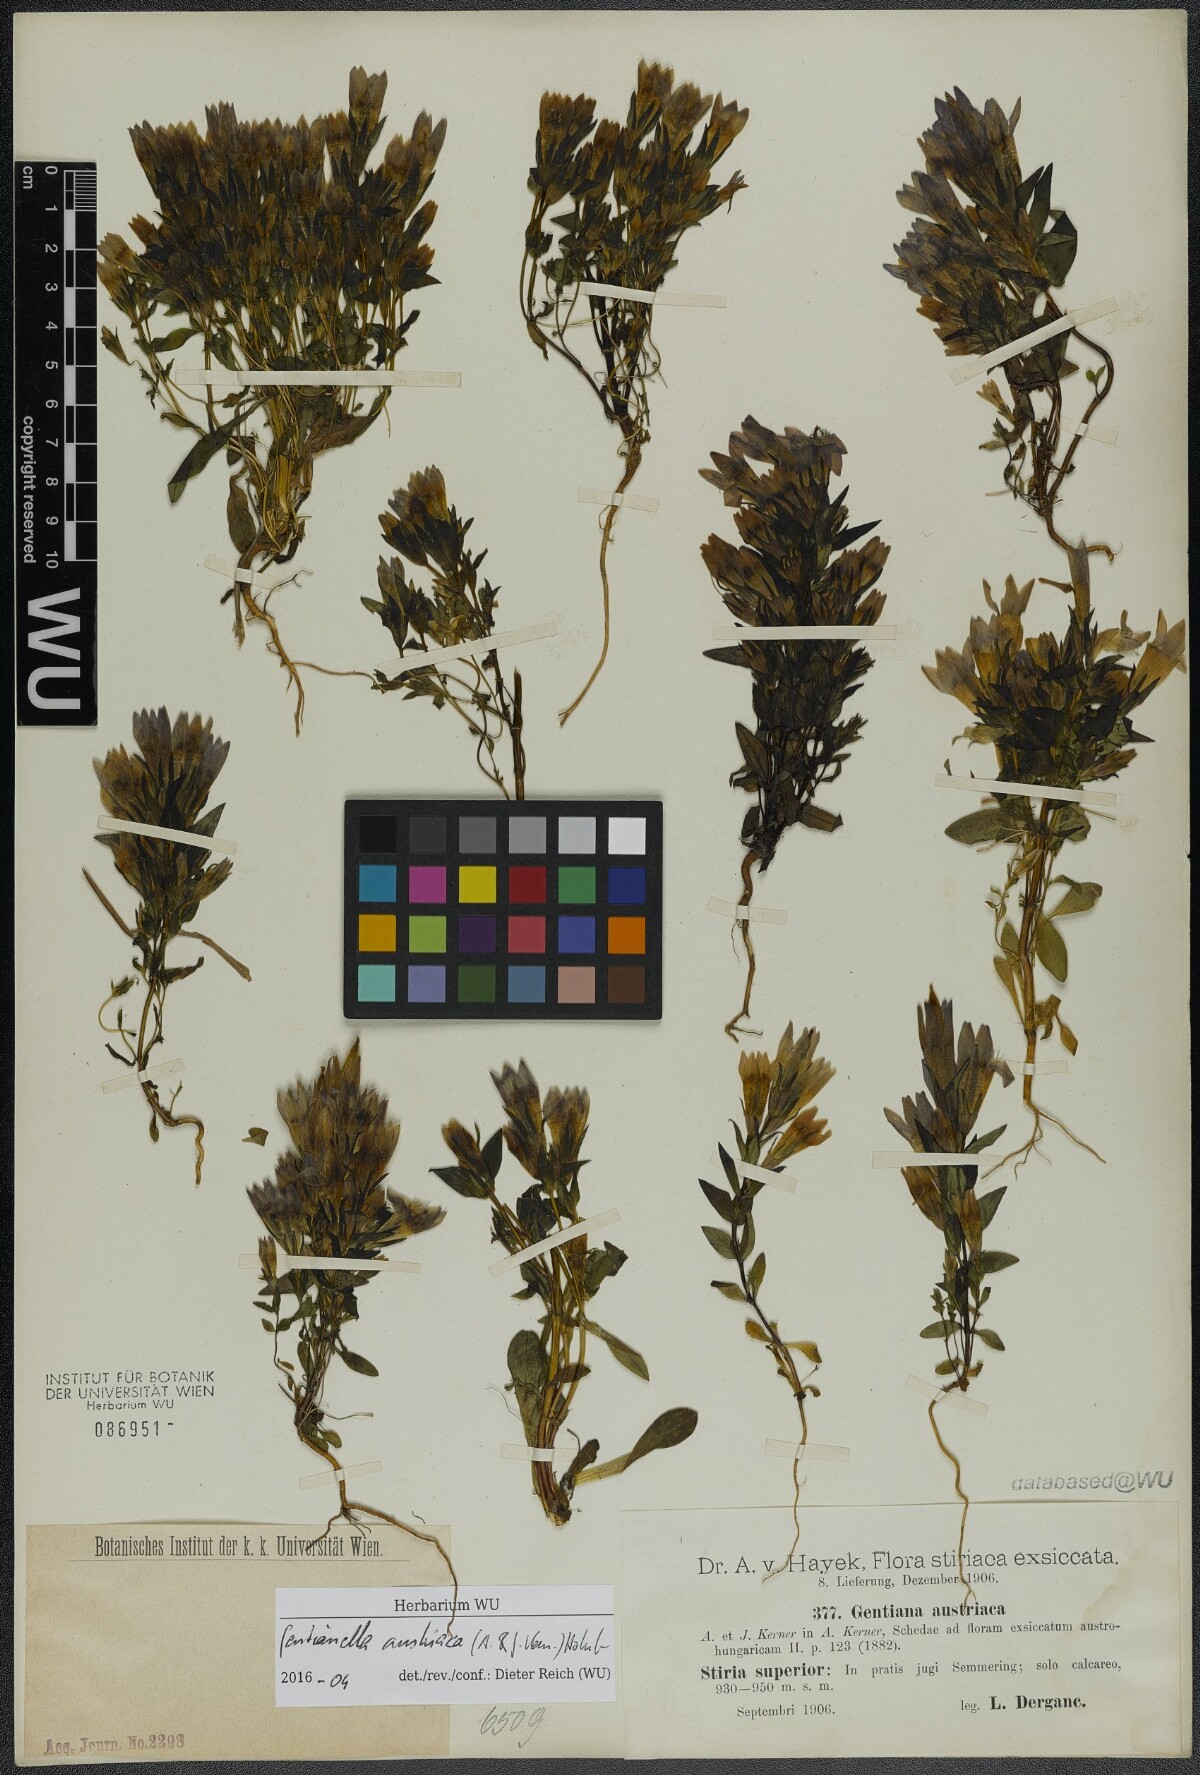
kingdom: Plantae
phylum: Tracheophyta
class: Magnoliopsida
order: Gentianales
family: Gentianaceae
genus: Gentianella
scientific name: Gentianella austriaca
